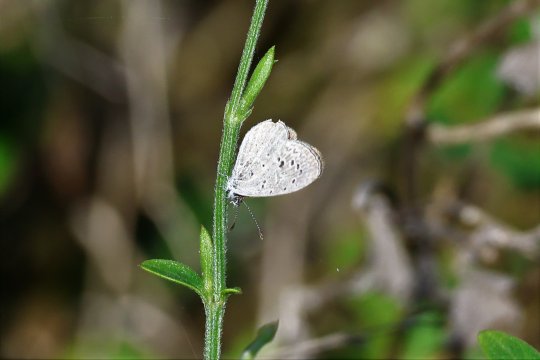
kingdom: Animalia
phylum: Arthropoda
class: Insecta
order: Lepidoptera
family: Lycaenidae
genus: Lycaena
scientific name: Lycaena cyna
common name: Cyna Blue
